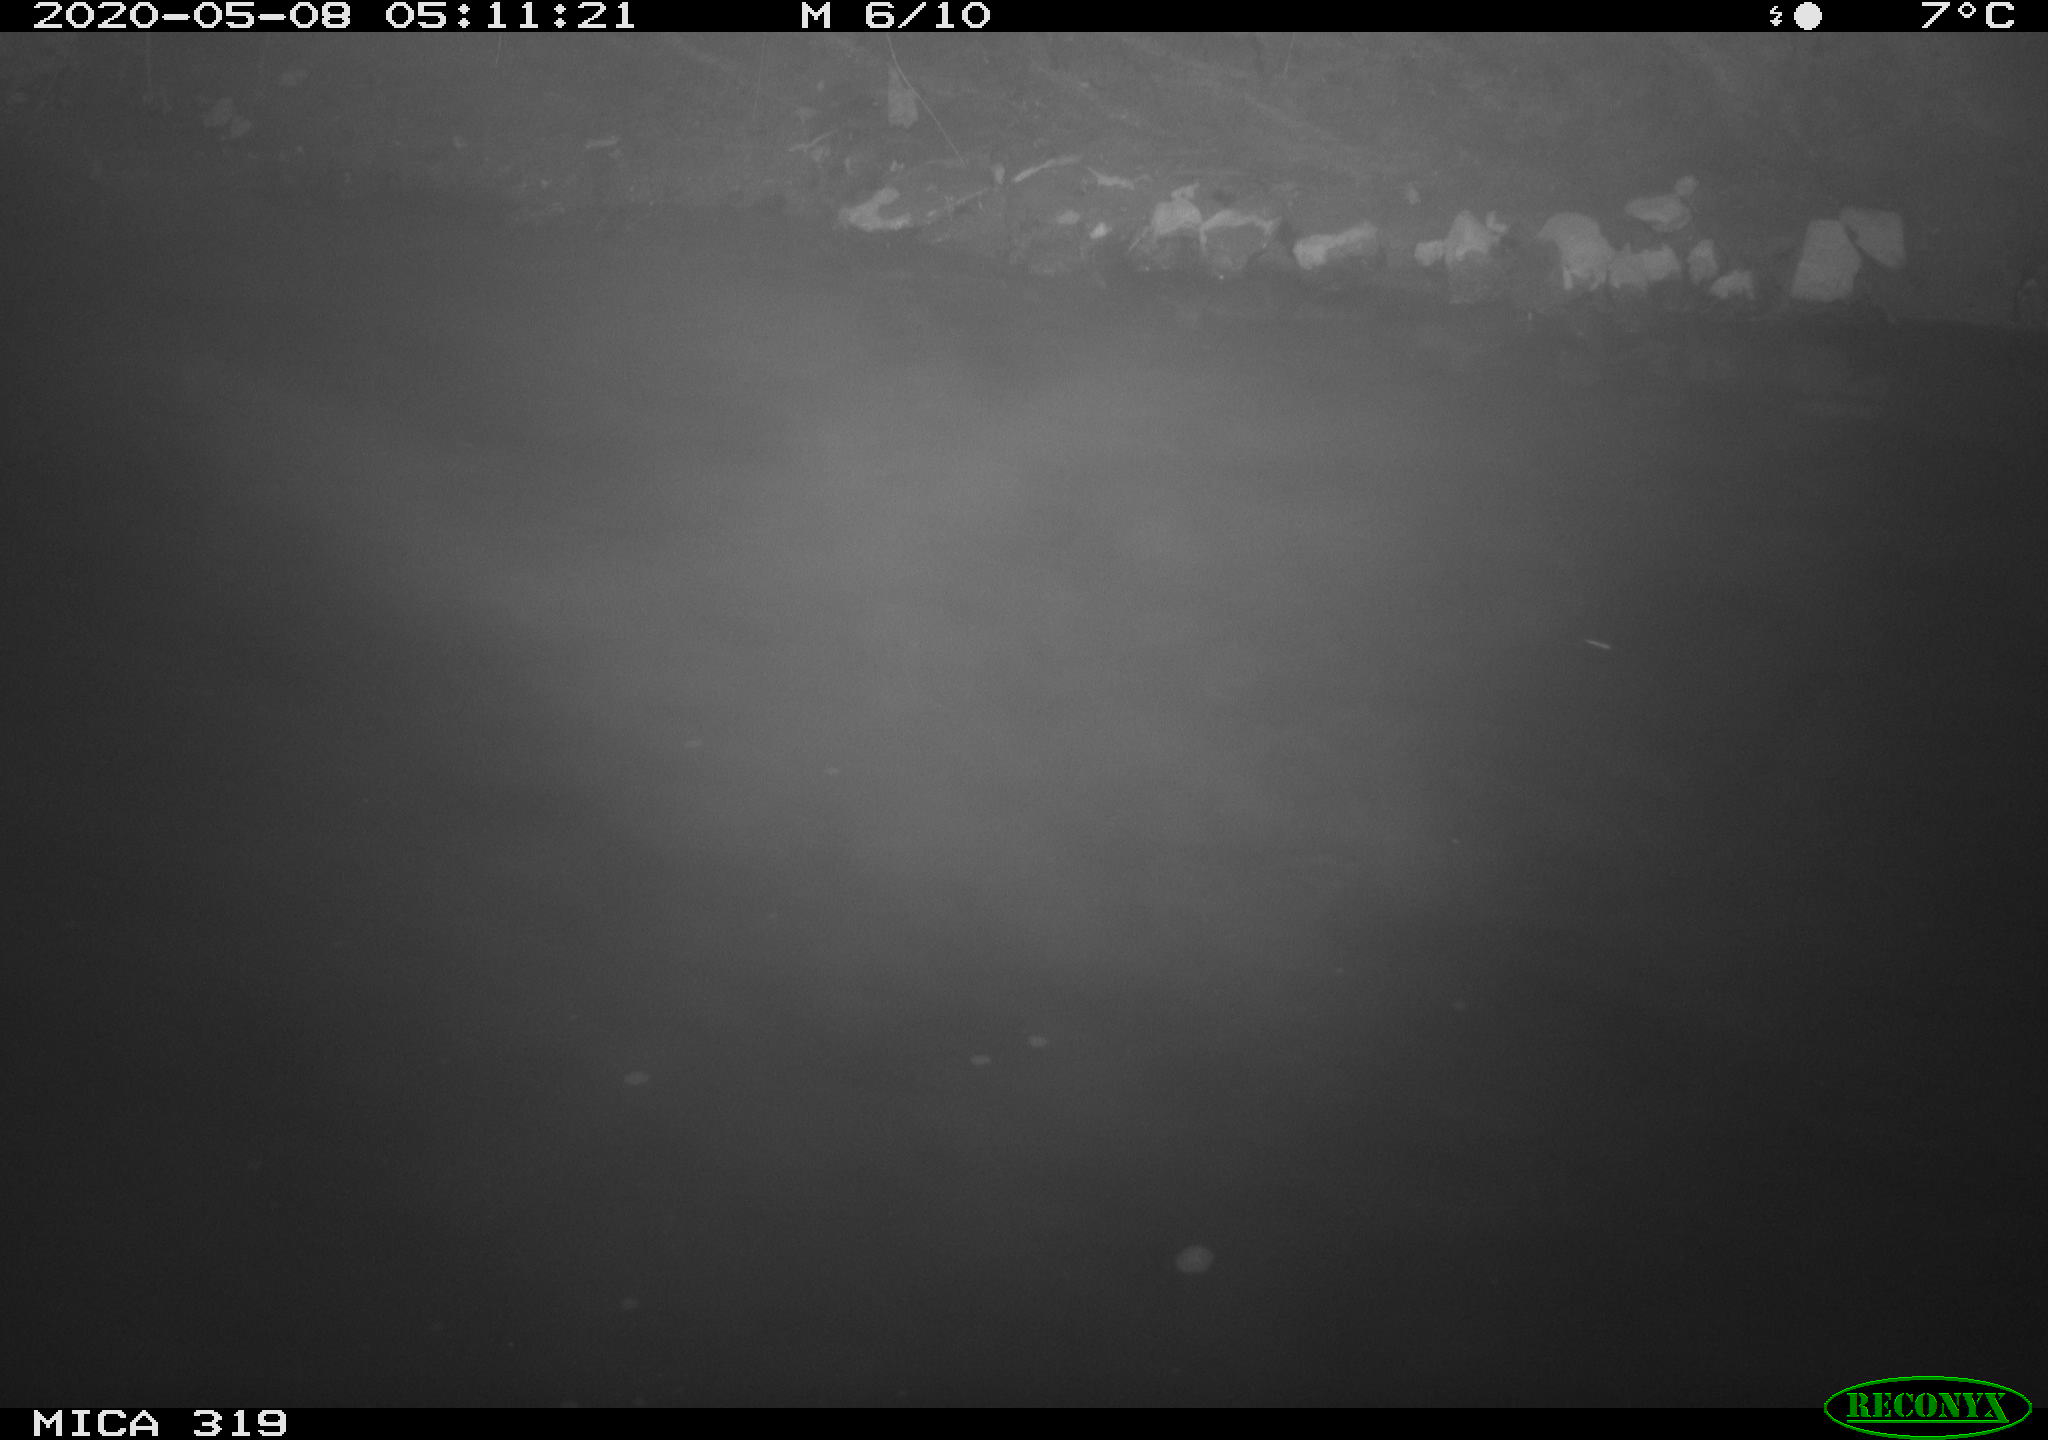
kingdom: Animalia
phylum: Chordata
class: Aves
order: Anseriformes
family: Anatidae
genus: Anas
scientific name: Anas platyrhynchos
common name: Mallard
